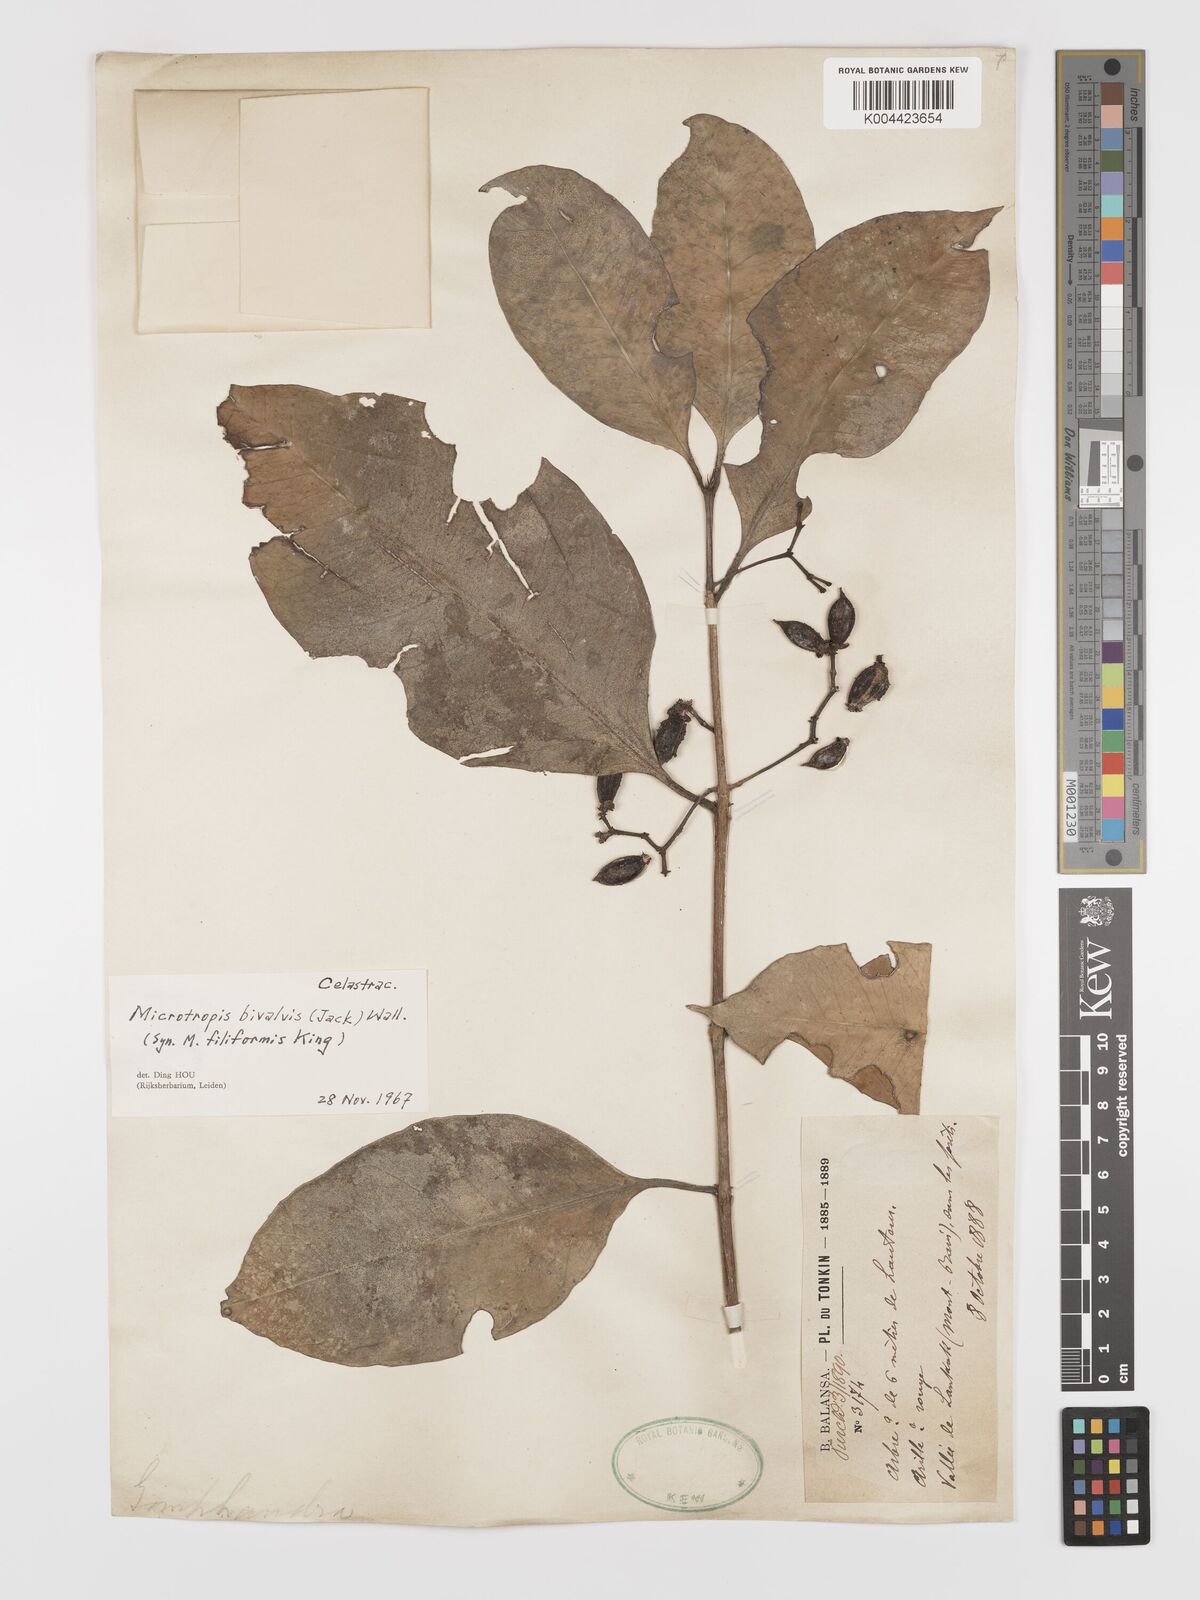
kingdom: Plantae
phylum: Tracheophyta
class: Magnoliopsida
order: Celastrales
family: Celastraceae
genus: Microtropis
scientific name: Microtropis bivalvis
